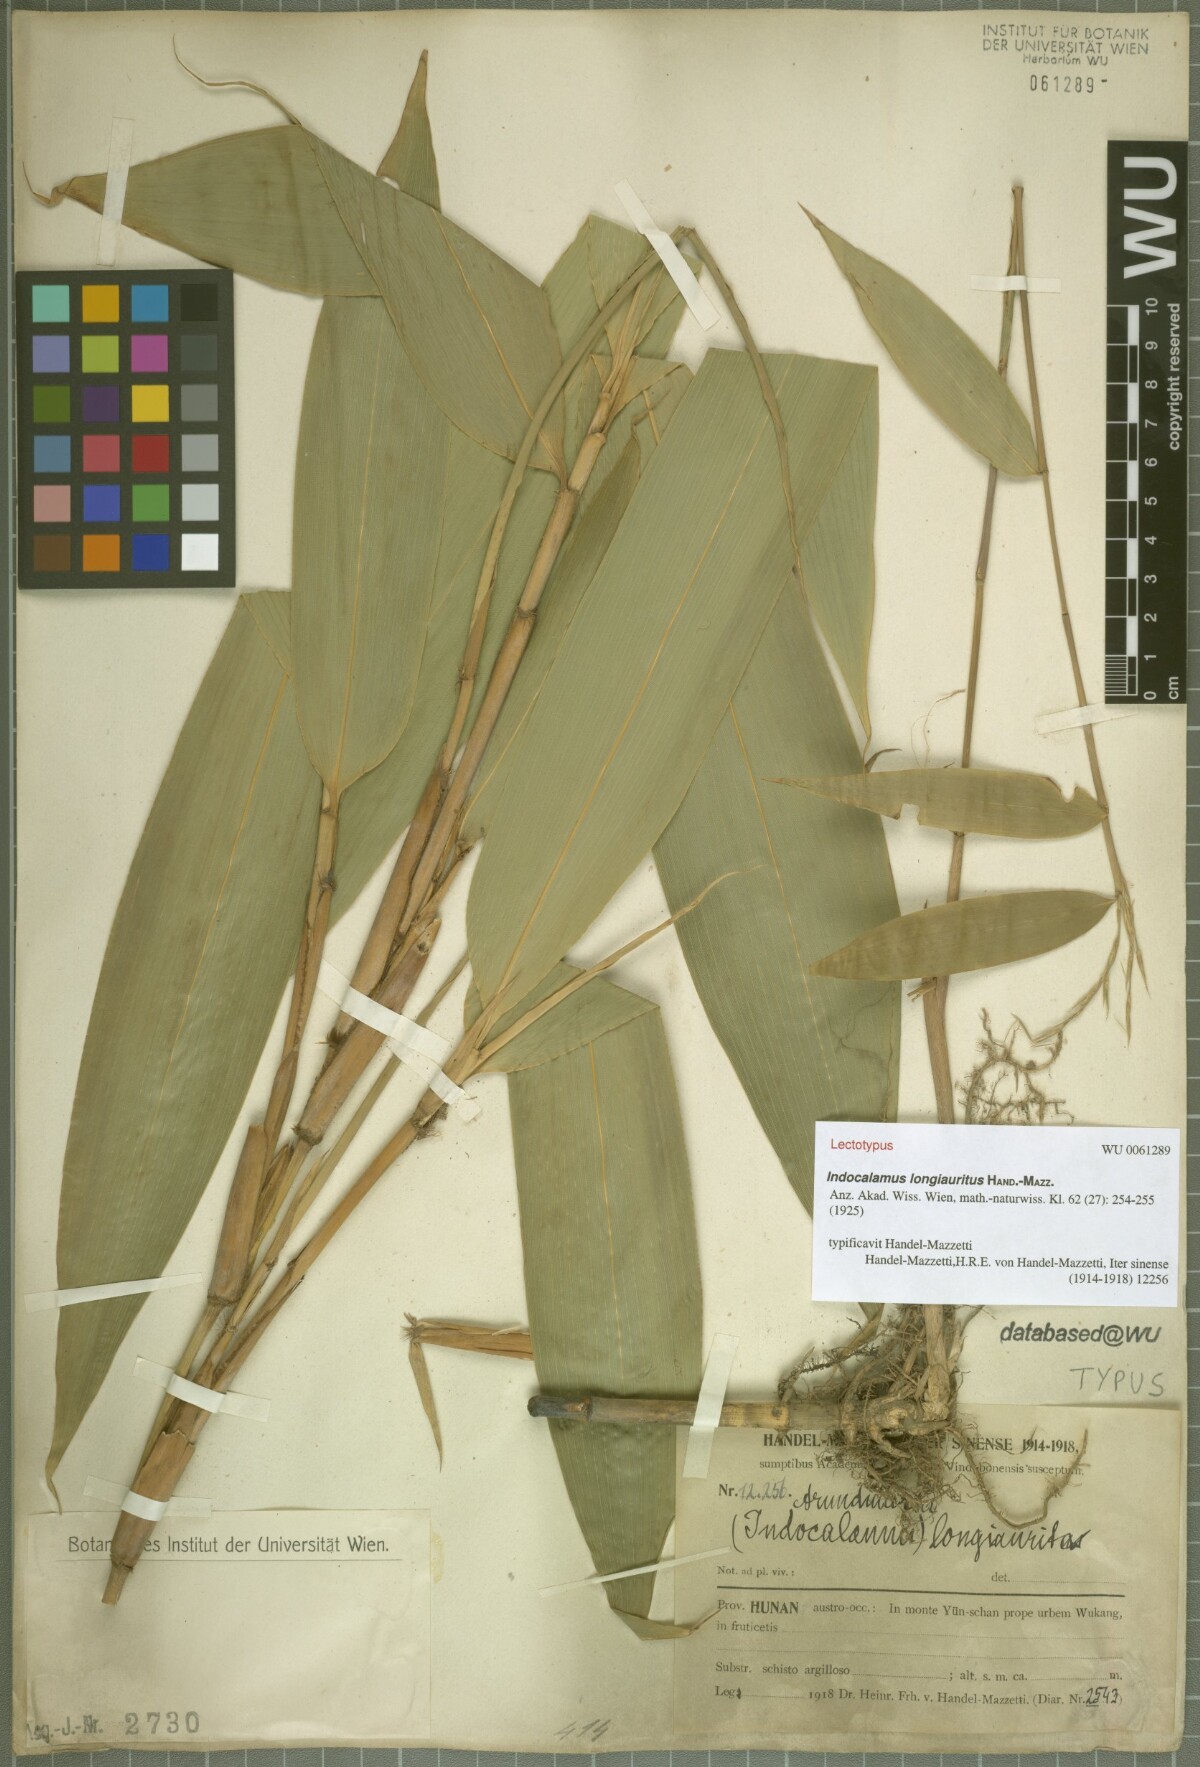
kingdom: Plantae
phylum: Tracheophyta
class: Liliopsida
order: Poales
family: Poaceae
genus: Indocalamus
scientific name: Indocalamus longiauritus
